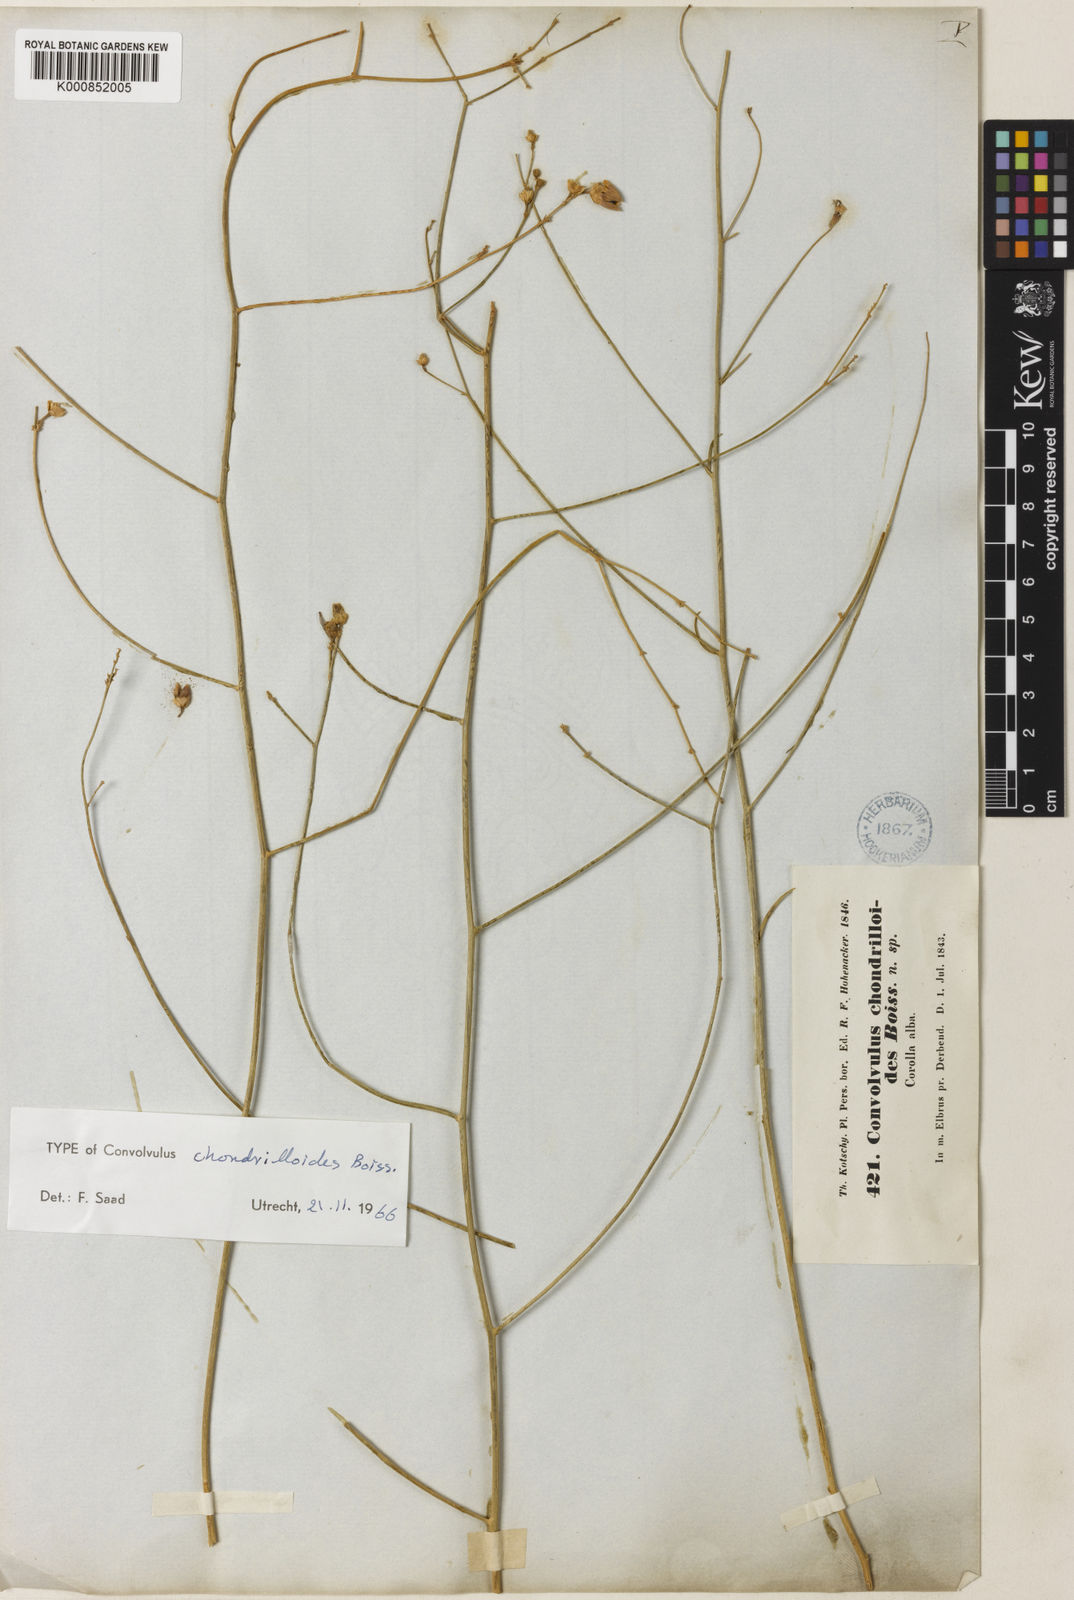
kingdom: Plantae
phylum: Tracheophyta
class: Magnoliopsida
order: Solanales
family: Convolvulaceae
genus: Convolvulus
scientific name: Convolvulus chondrilloides
